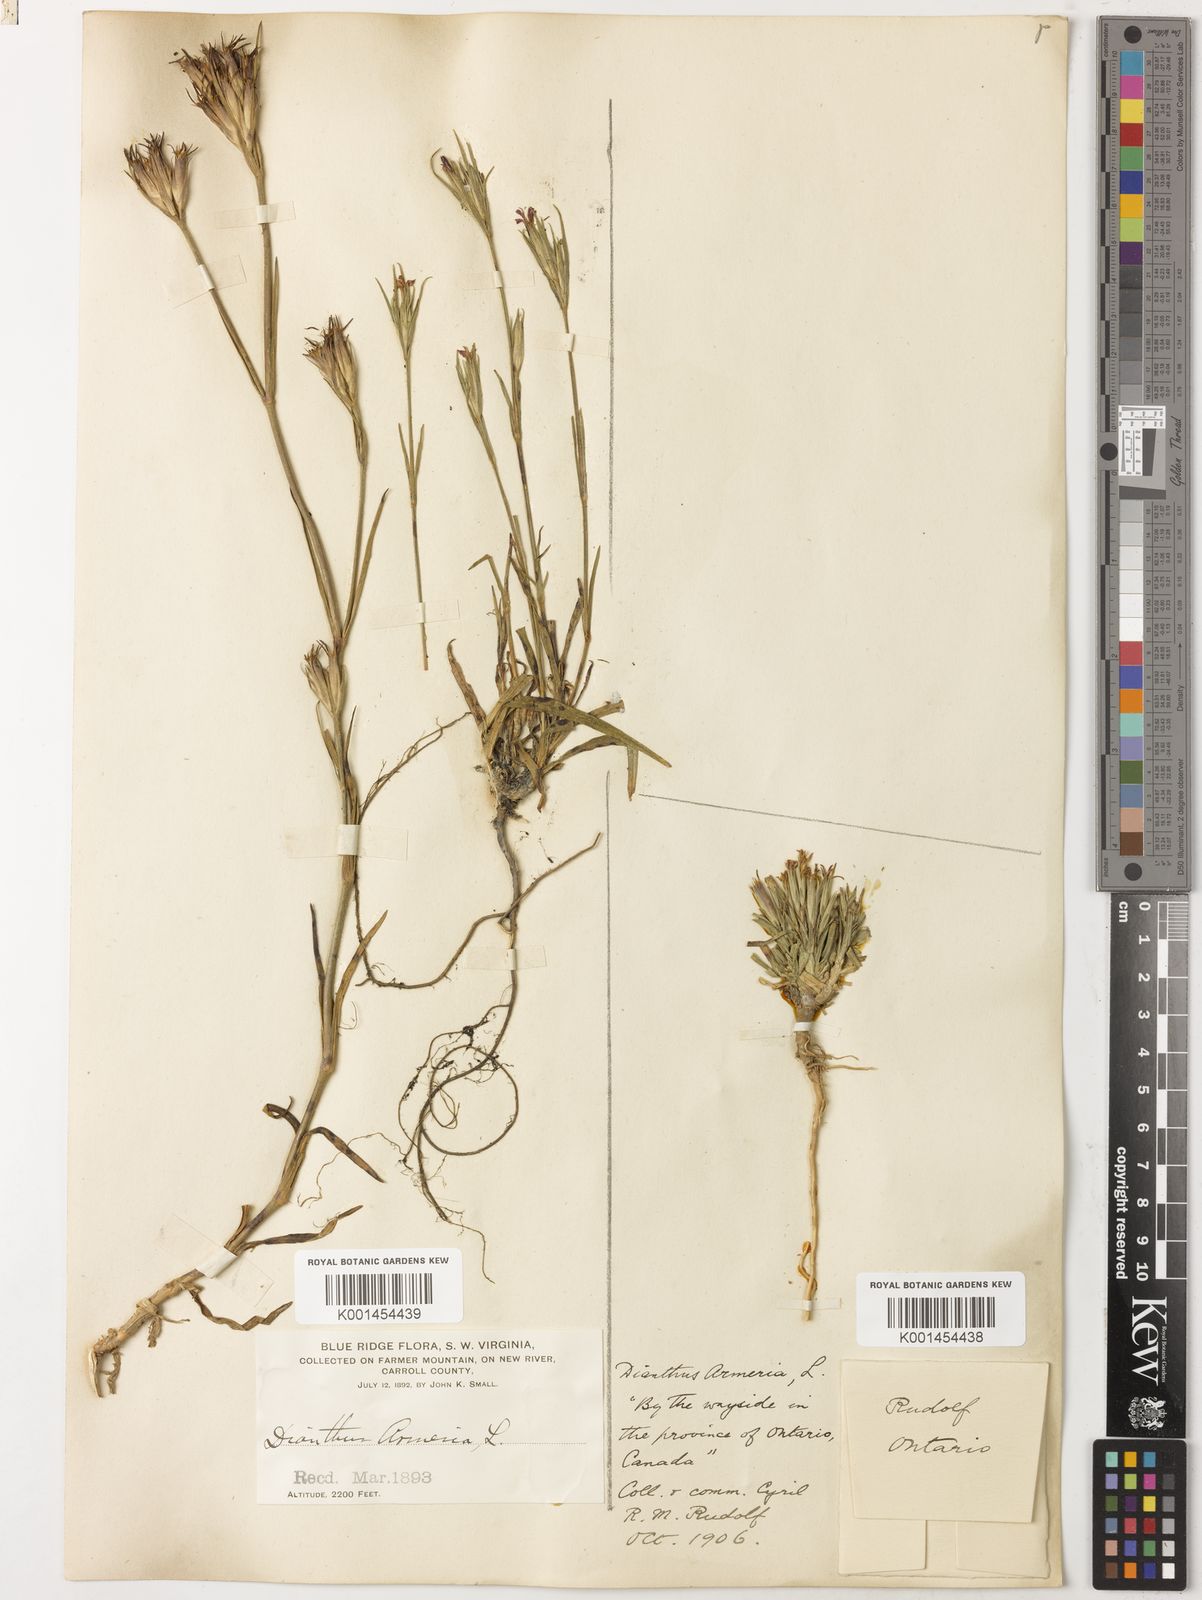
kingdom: Plantae
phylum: Tracheophyta
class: Magnoliopsida
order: Caryophyllales
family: Caryophyllaceae
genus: Dianthus
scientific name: Dianthus armeria
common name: Deptford pink
